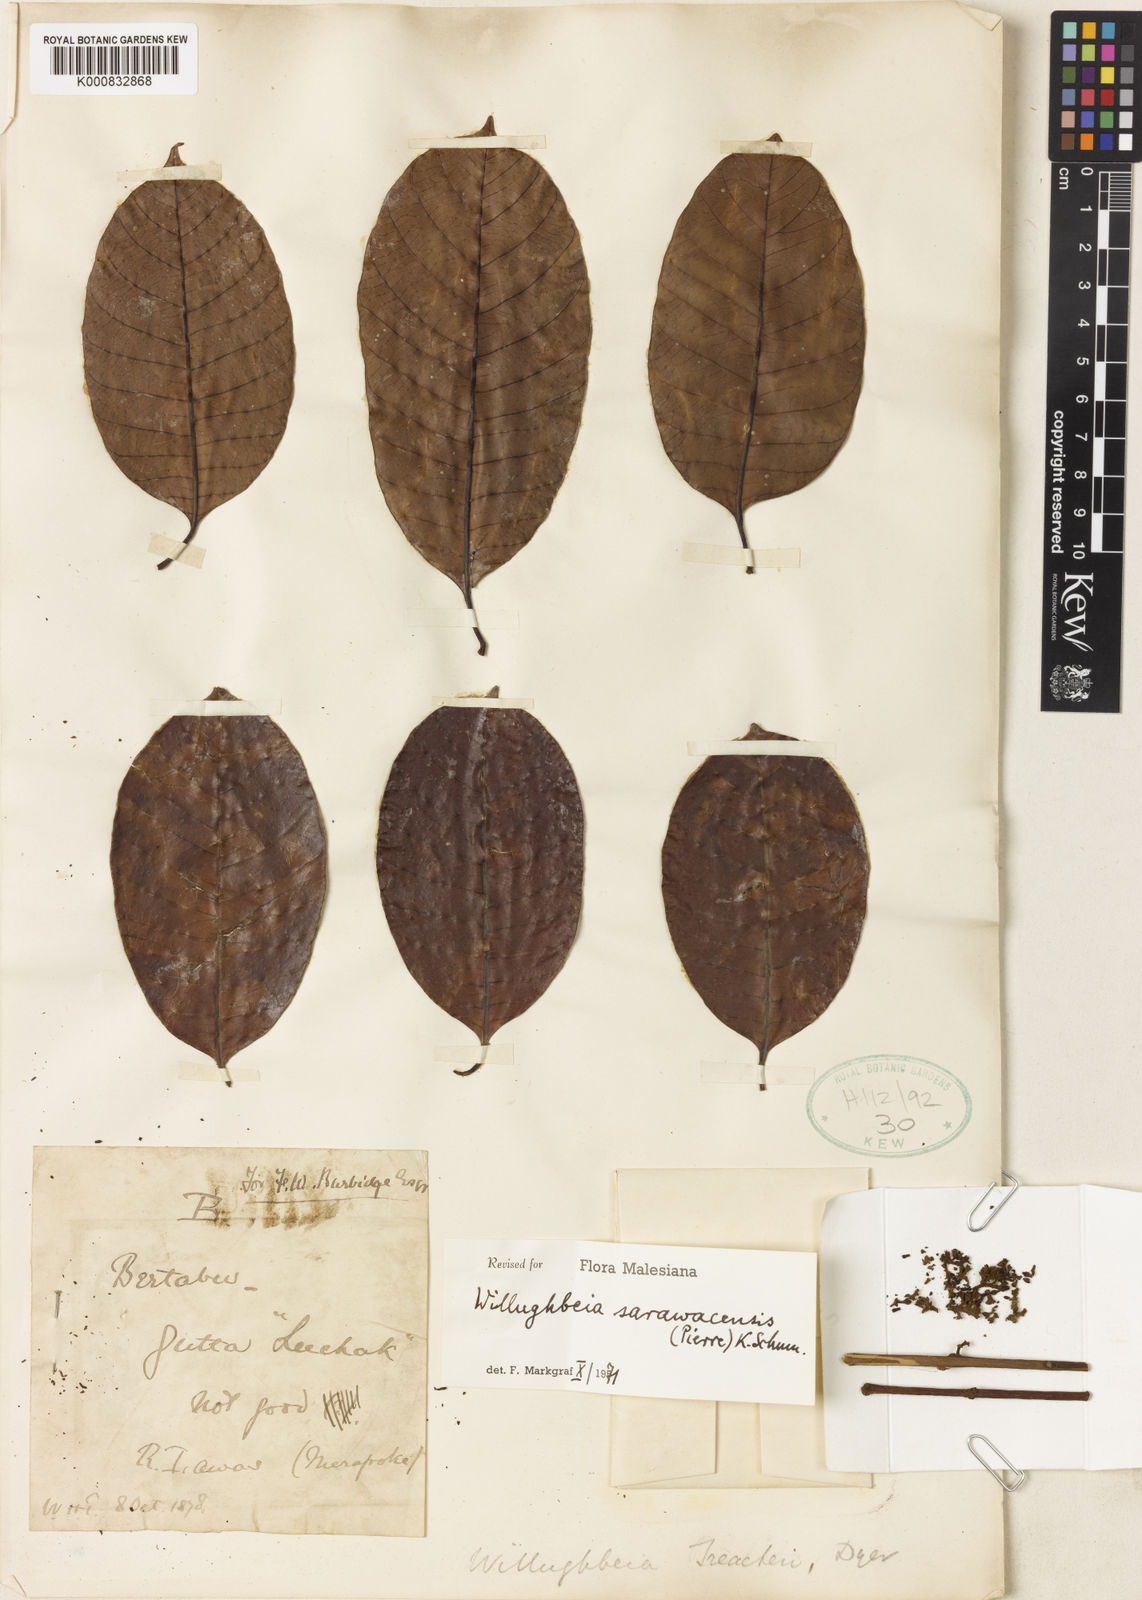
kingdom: Plantae
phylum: Tracheophyta
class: Magnoliopsida
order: Gentianales
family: Apocynaceae
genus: Willughbeia
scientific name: Willughbeia sarawacensis
